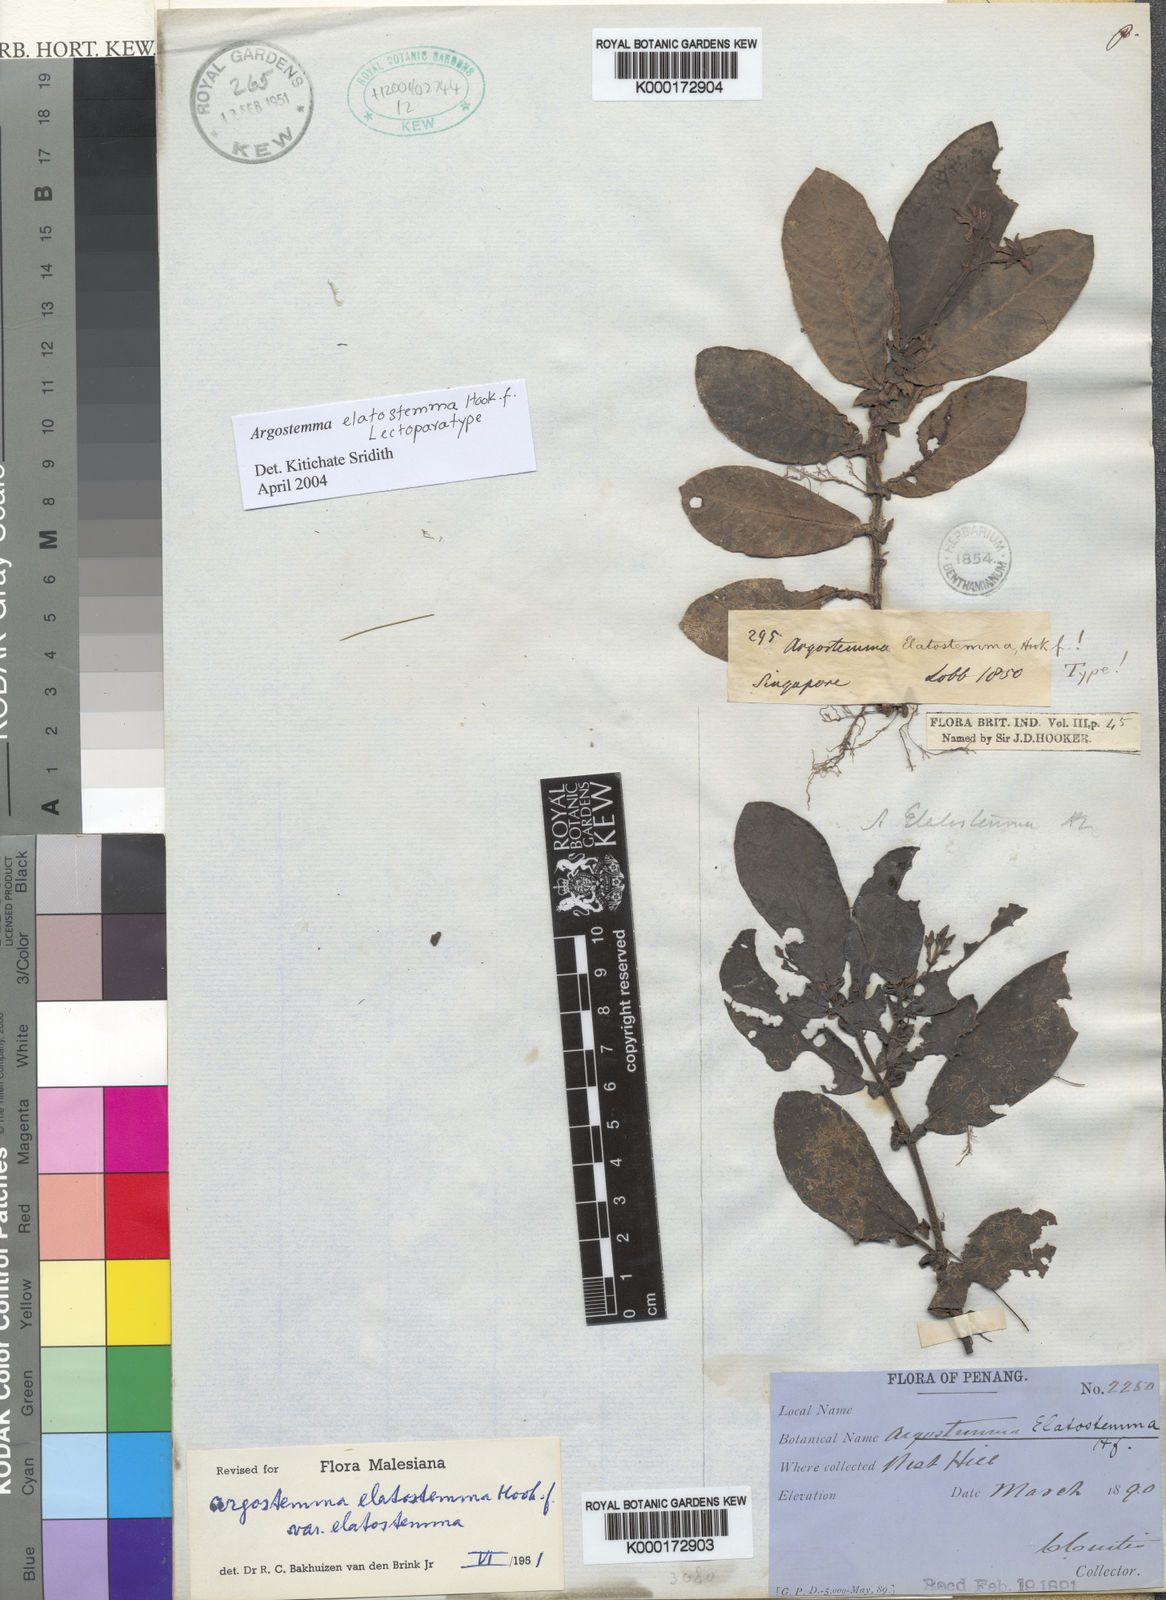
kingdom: Plantae
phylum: Tracheophyta
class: Magnoliopsida
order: Gentianales
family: Rubiaceae
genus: Argostemma
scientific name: Argostemma elatostemma
